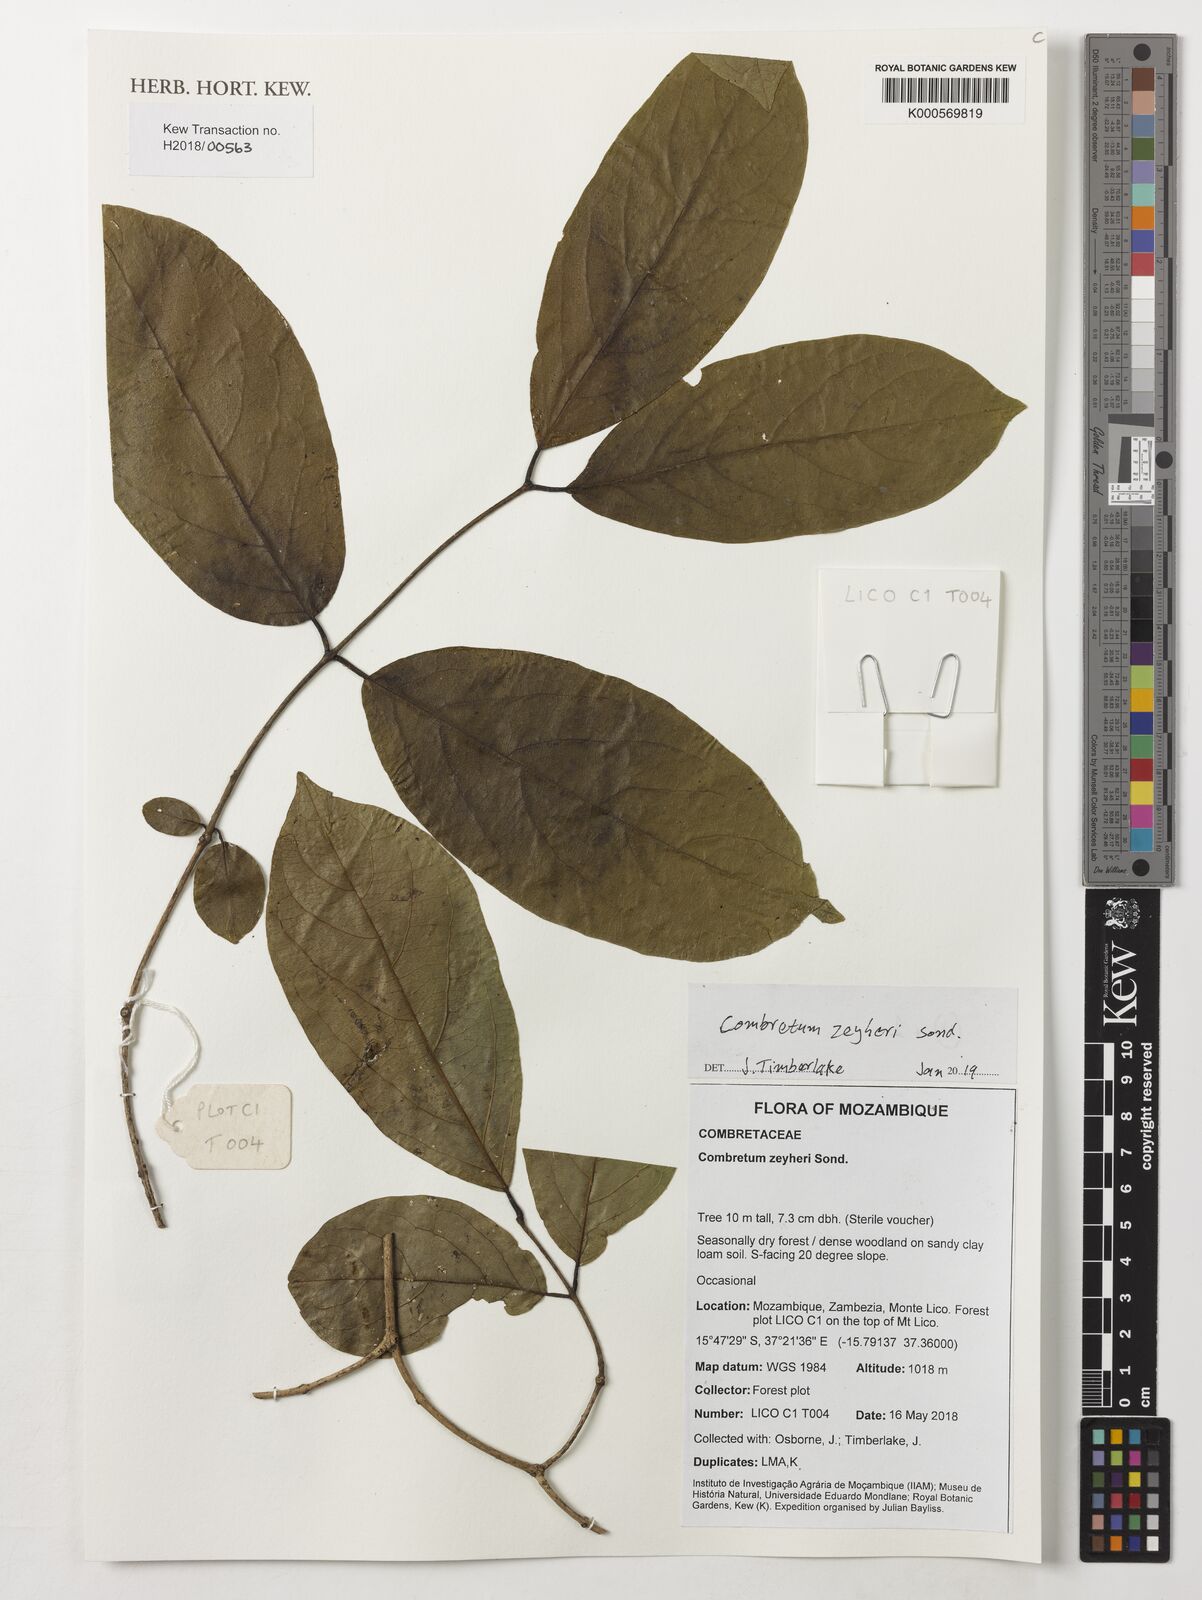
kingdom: Plantae
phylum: Tracheophyta
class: Magnoliopsida
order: Myrtales
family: Combretaceae
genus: Combretum
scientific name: Combretum zeyheri
